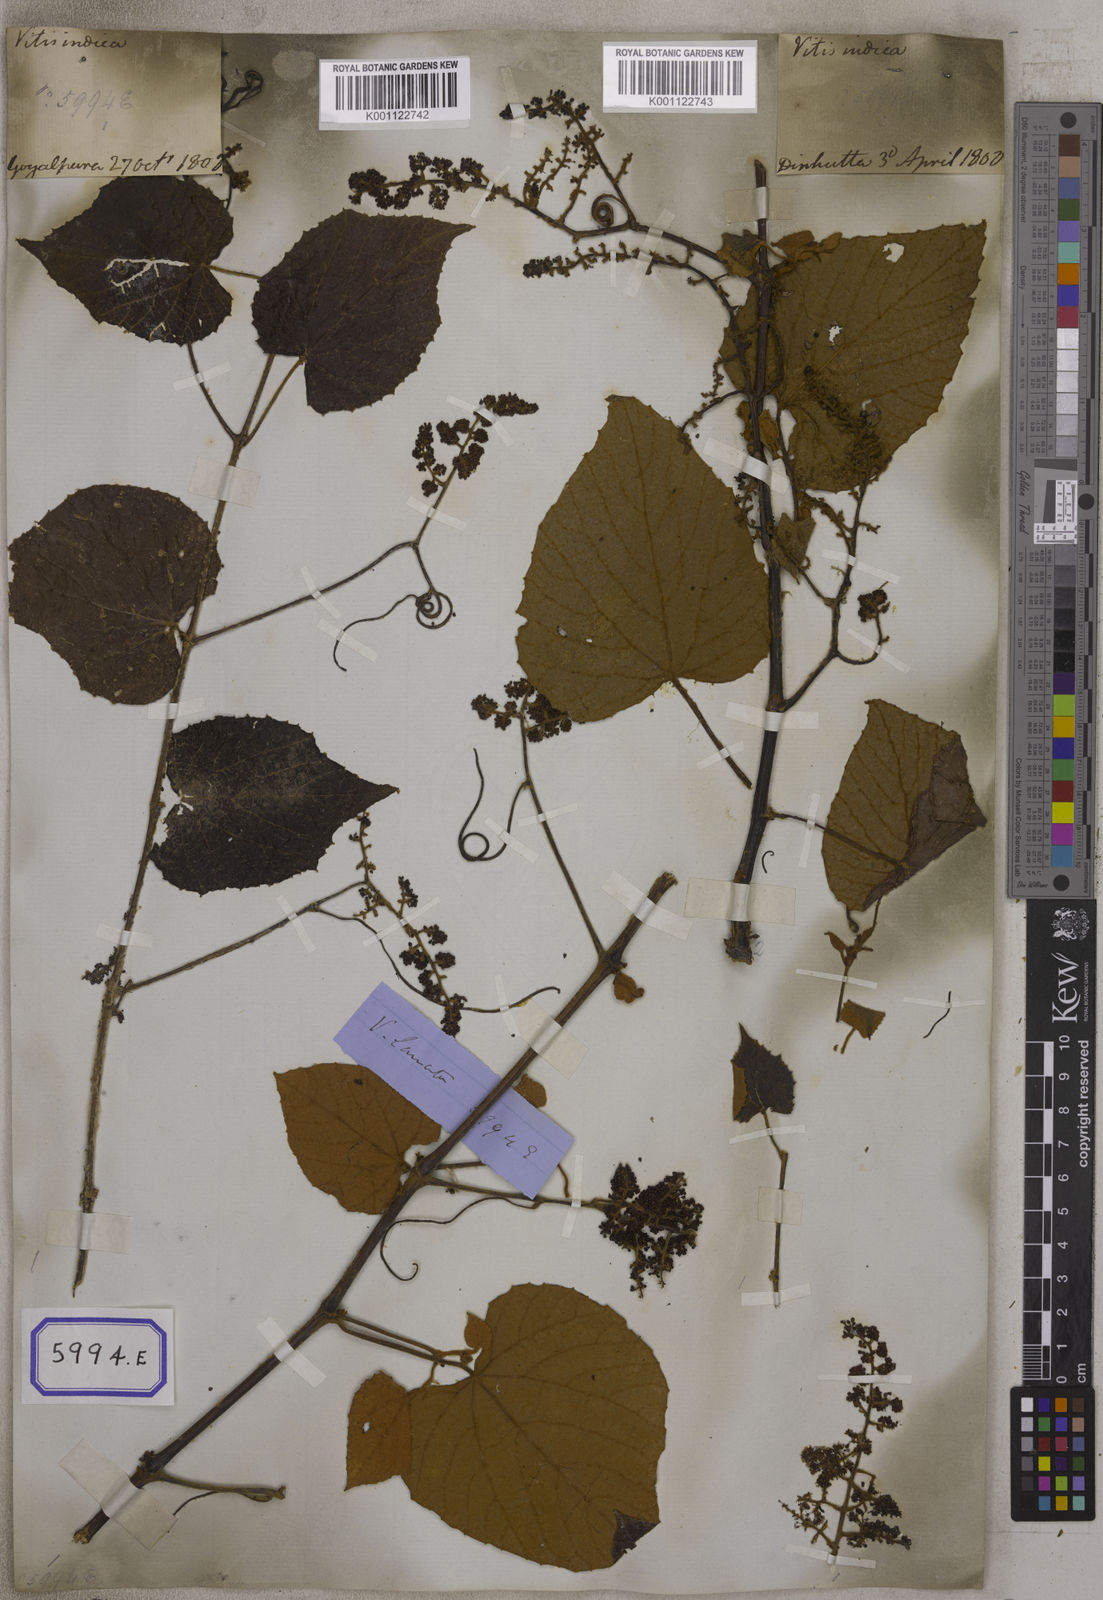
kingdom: Plantae
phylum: Tracheophyta
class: Magnoliopsida
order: Vitales
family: Vitaceae
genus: Ampelocissus
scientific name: Ampelocissus rugosa
